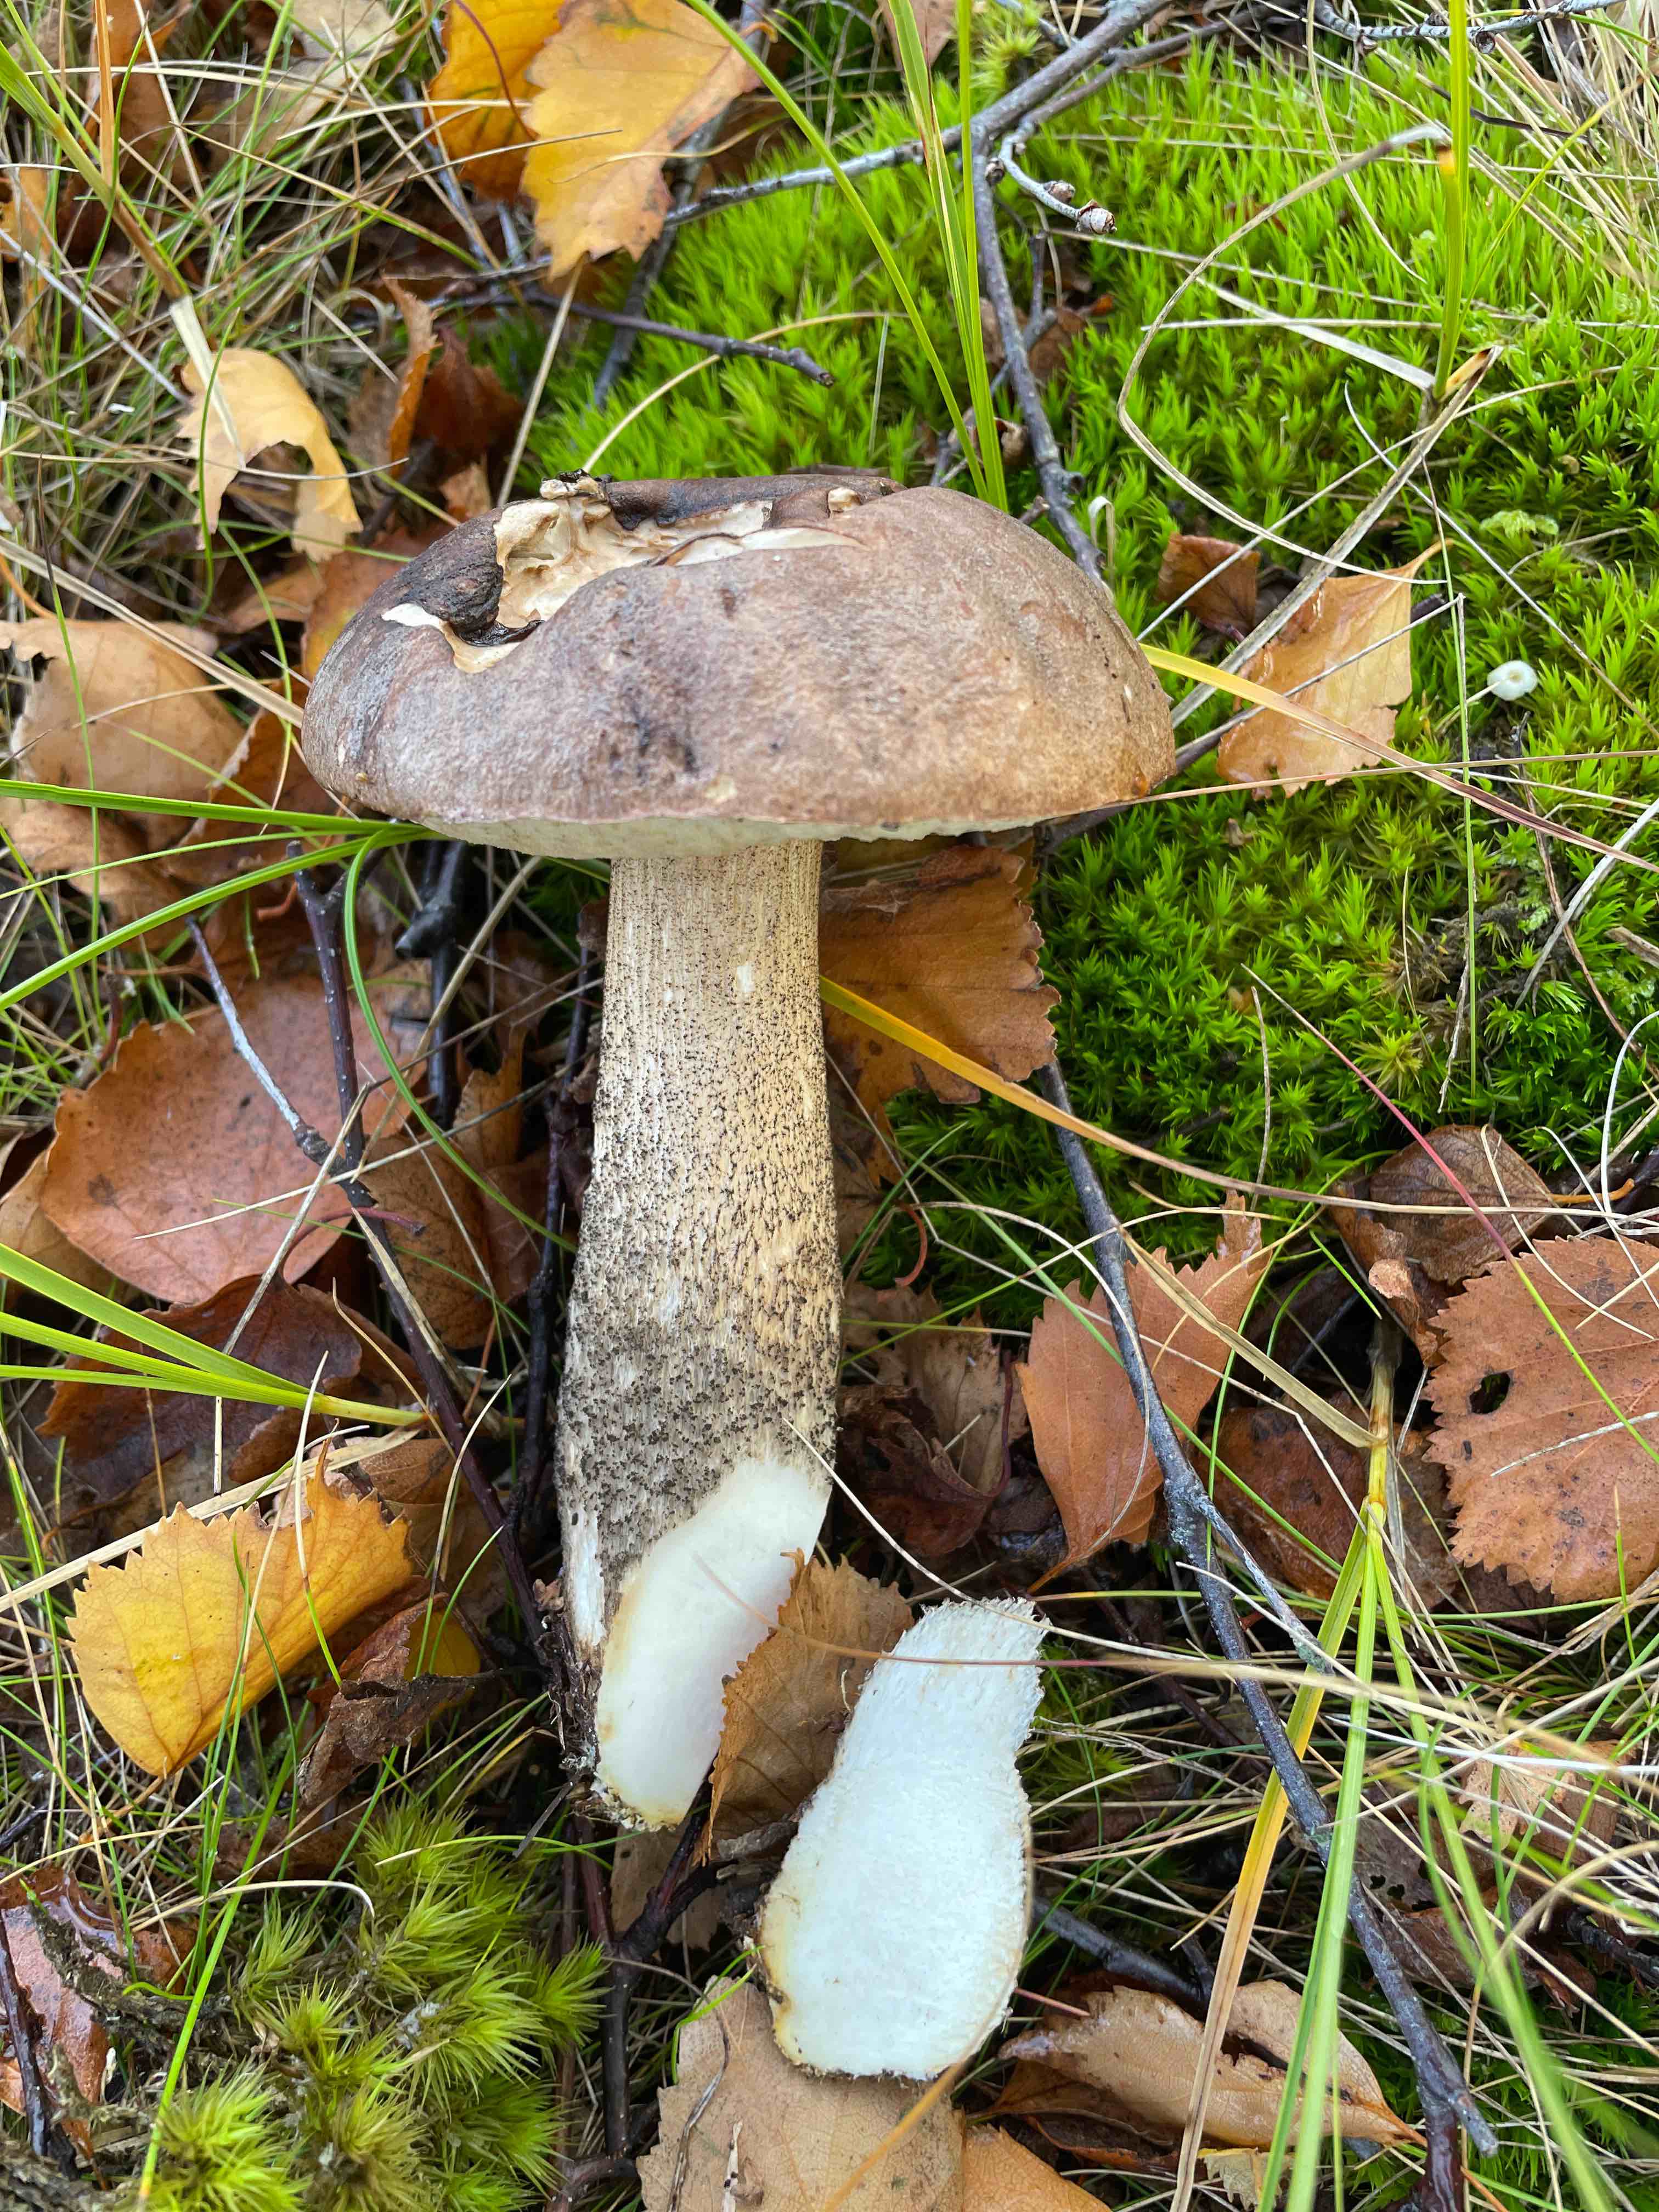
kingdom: Fungi
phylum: Basidiomycota
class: Agaricomycetes
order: Boletales
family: Boletaceae
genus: Leccinum
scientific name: Leccinum scabrum
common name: brun skælrørhat
